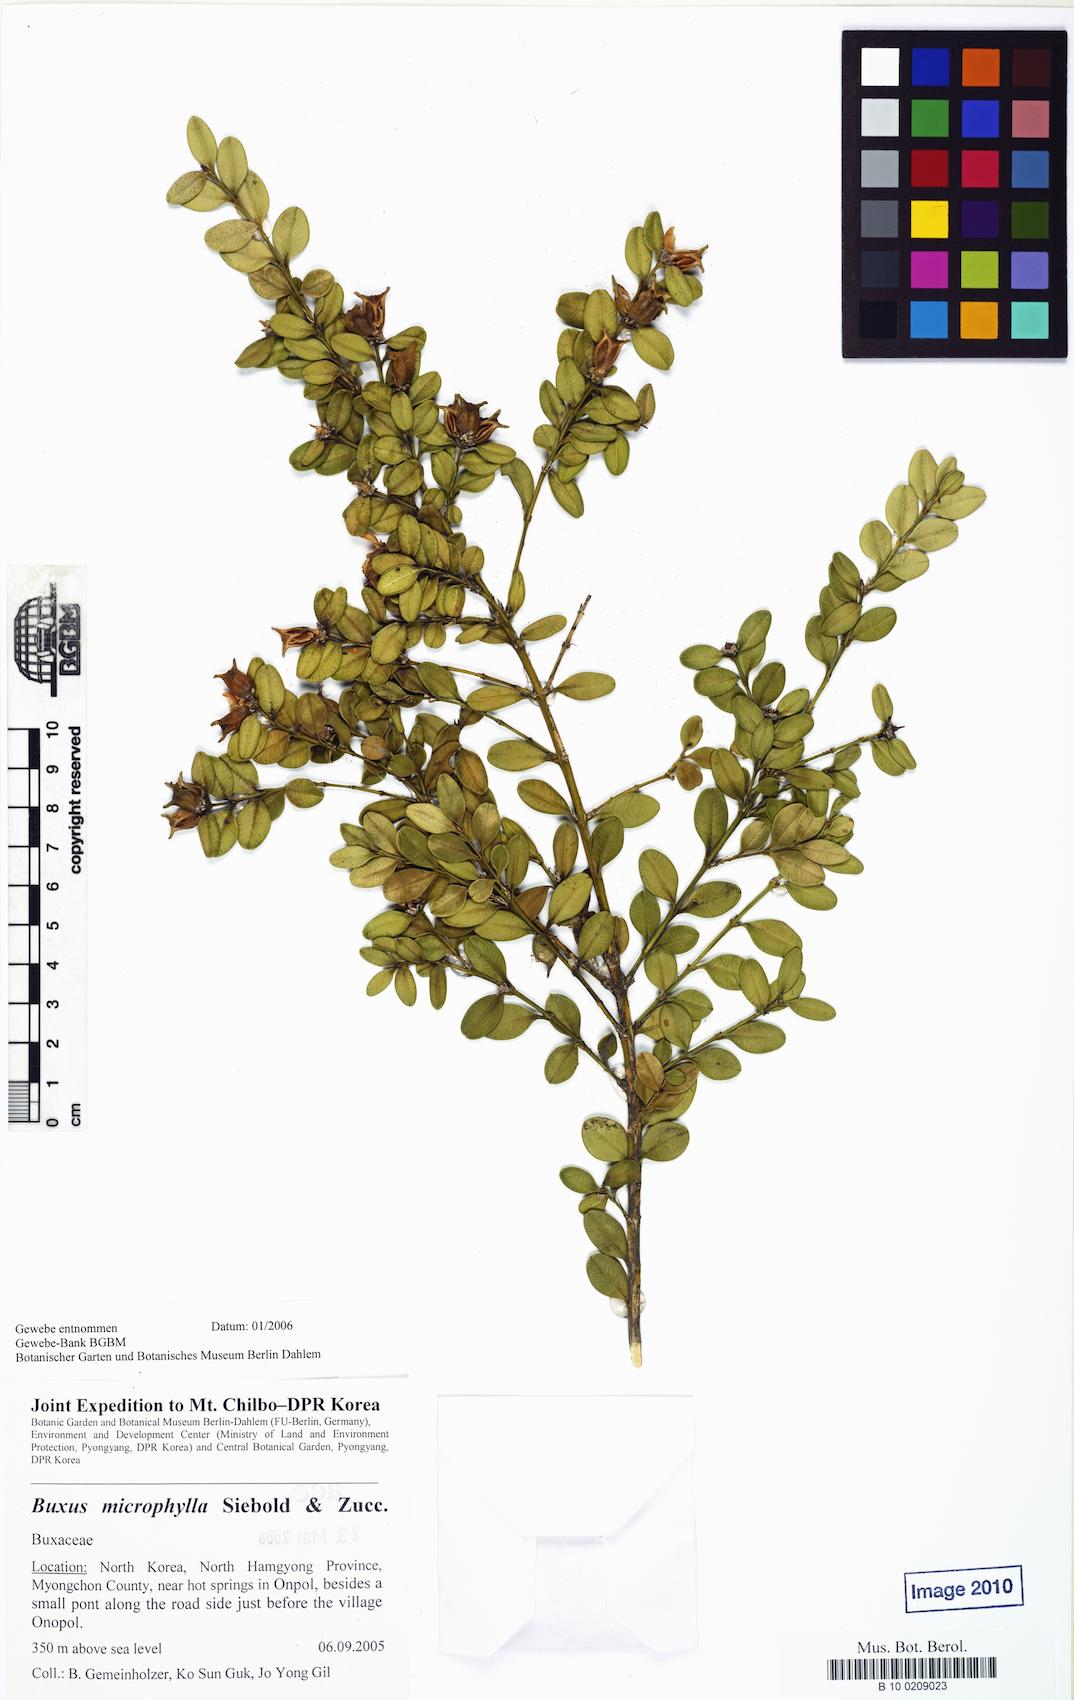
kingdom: Plantae
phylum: Tracheophyta
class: Magnoliopsida
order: Buxales
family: Buxaceae
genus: Buxus
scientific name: Buxus microphylla
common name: Littleleaf boxwood
